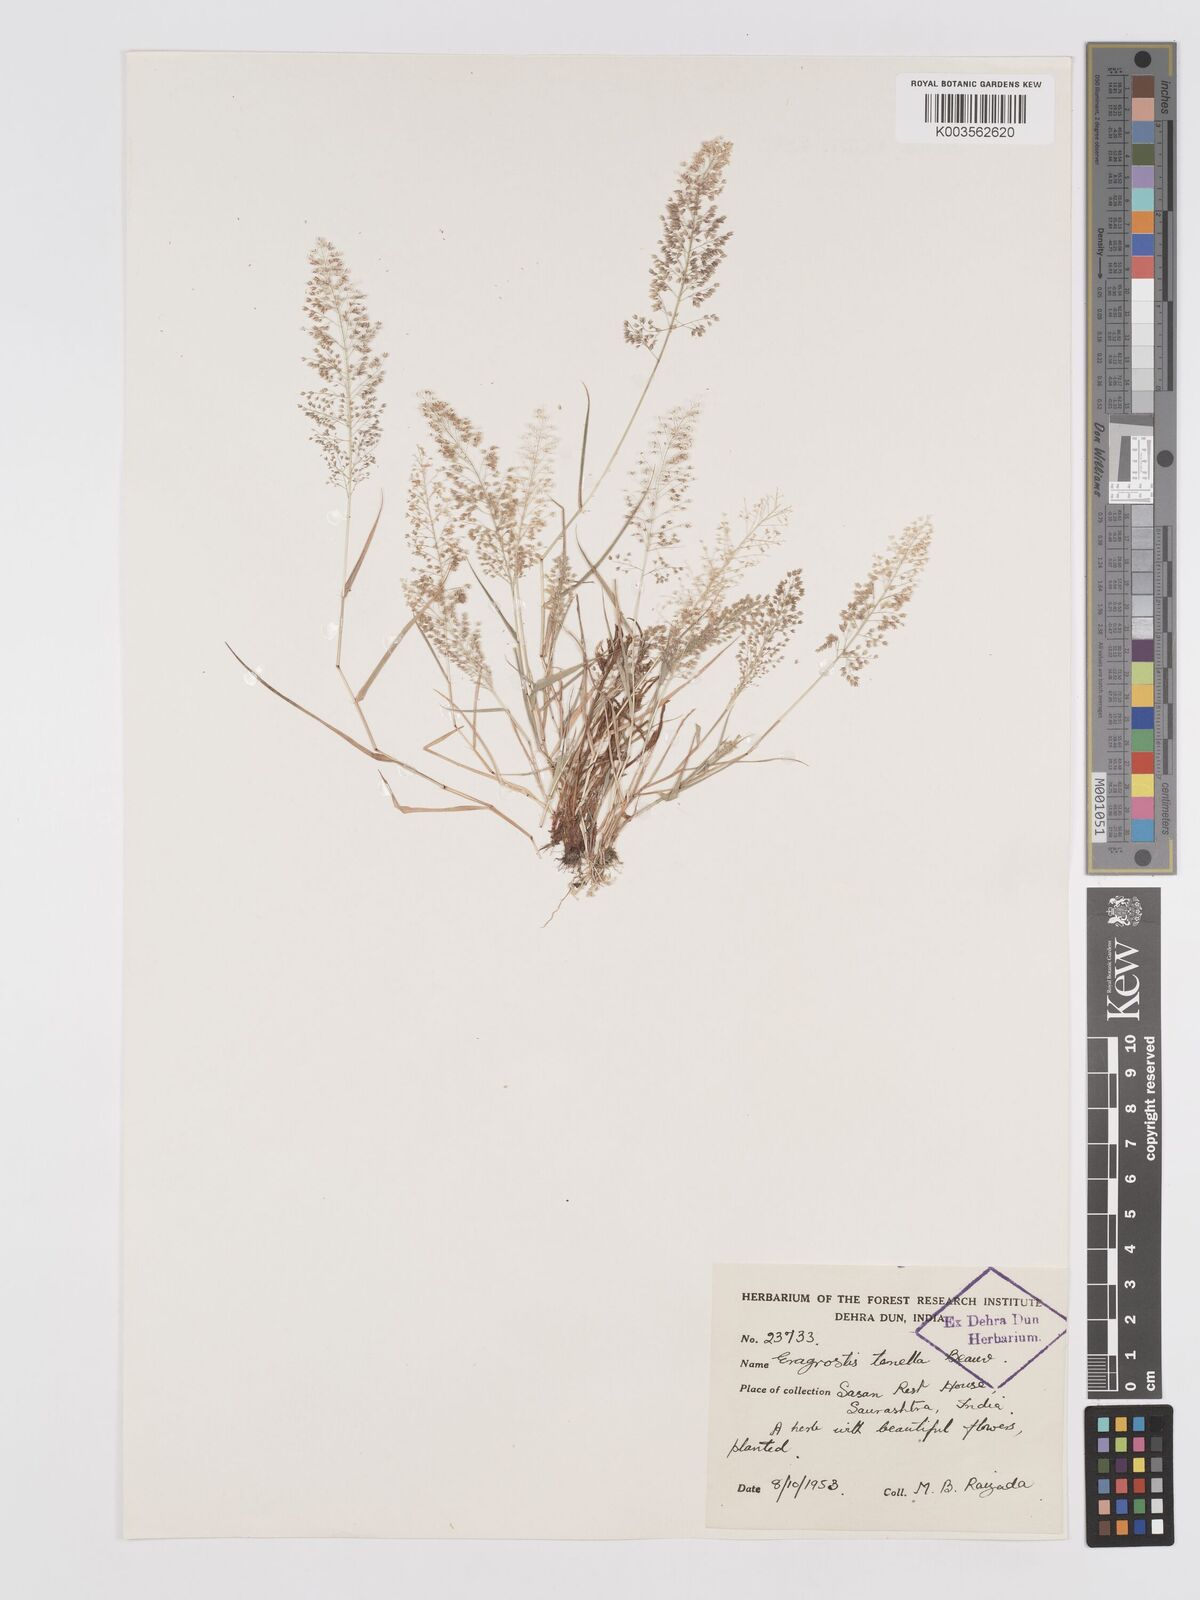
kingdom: Plantae
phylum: Tracheophyta
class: Liliopsida
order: Poales
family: Poaceae
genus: Eragrostis
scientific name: Eragrostis tenella
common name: Japanese lovegrass
